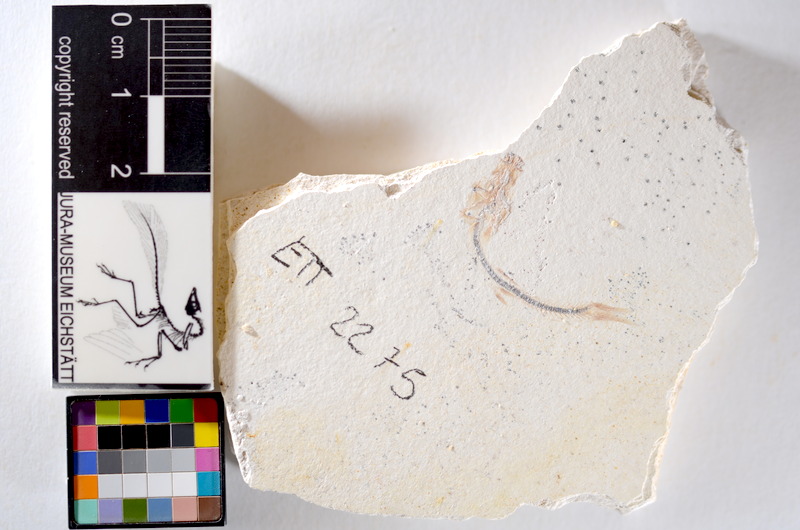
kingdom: Animalia
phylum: Chordata
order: Salmoniformes
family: Orthogonikleithridae
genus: Orthogonikleithrus
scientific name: Orthogonikleithrus hoelli
